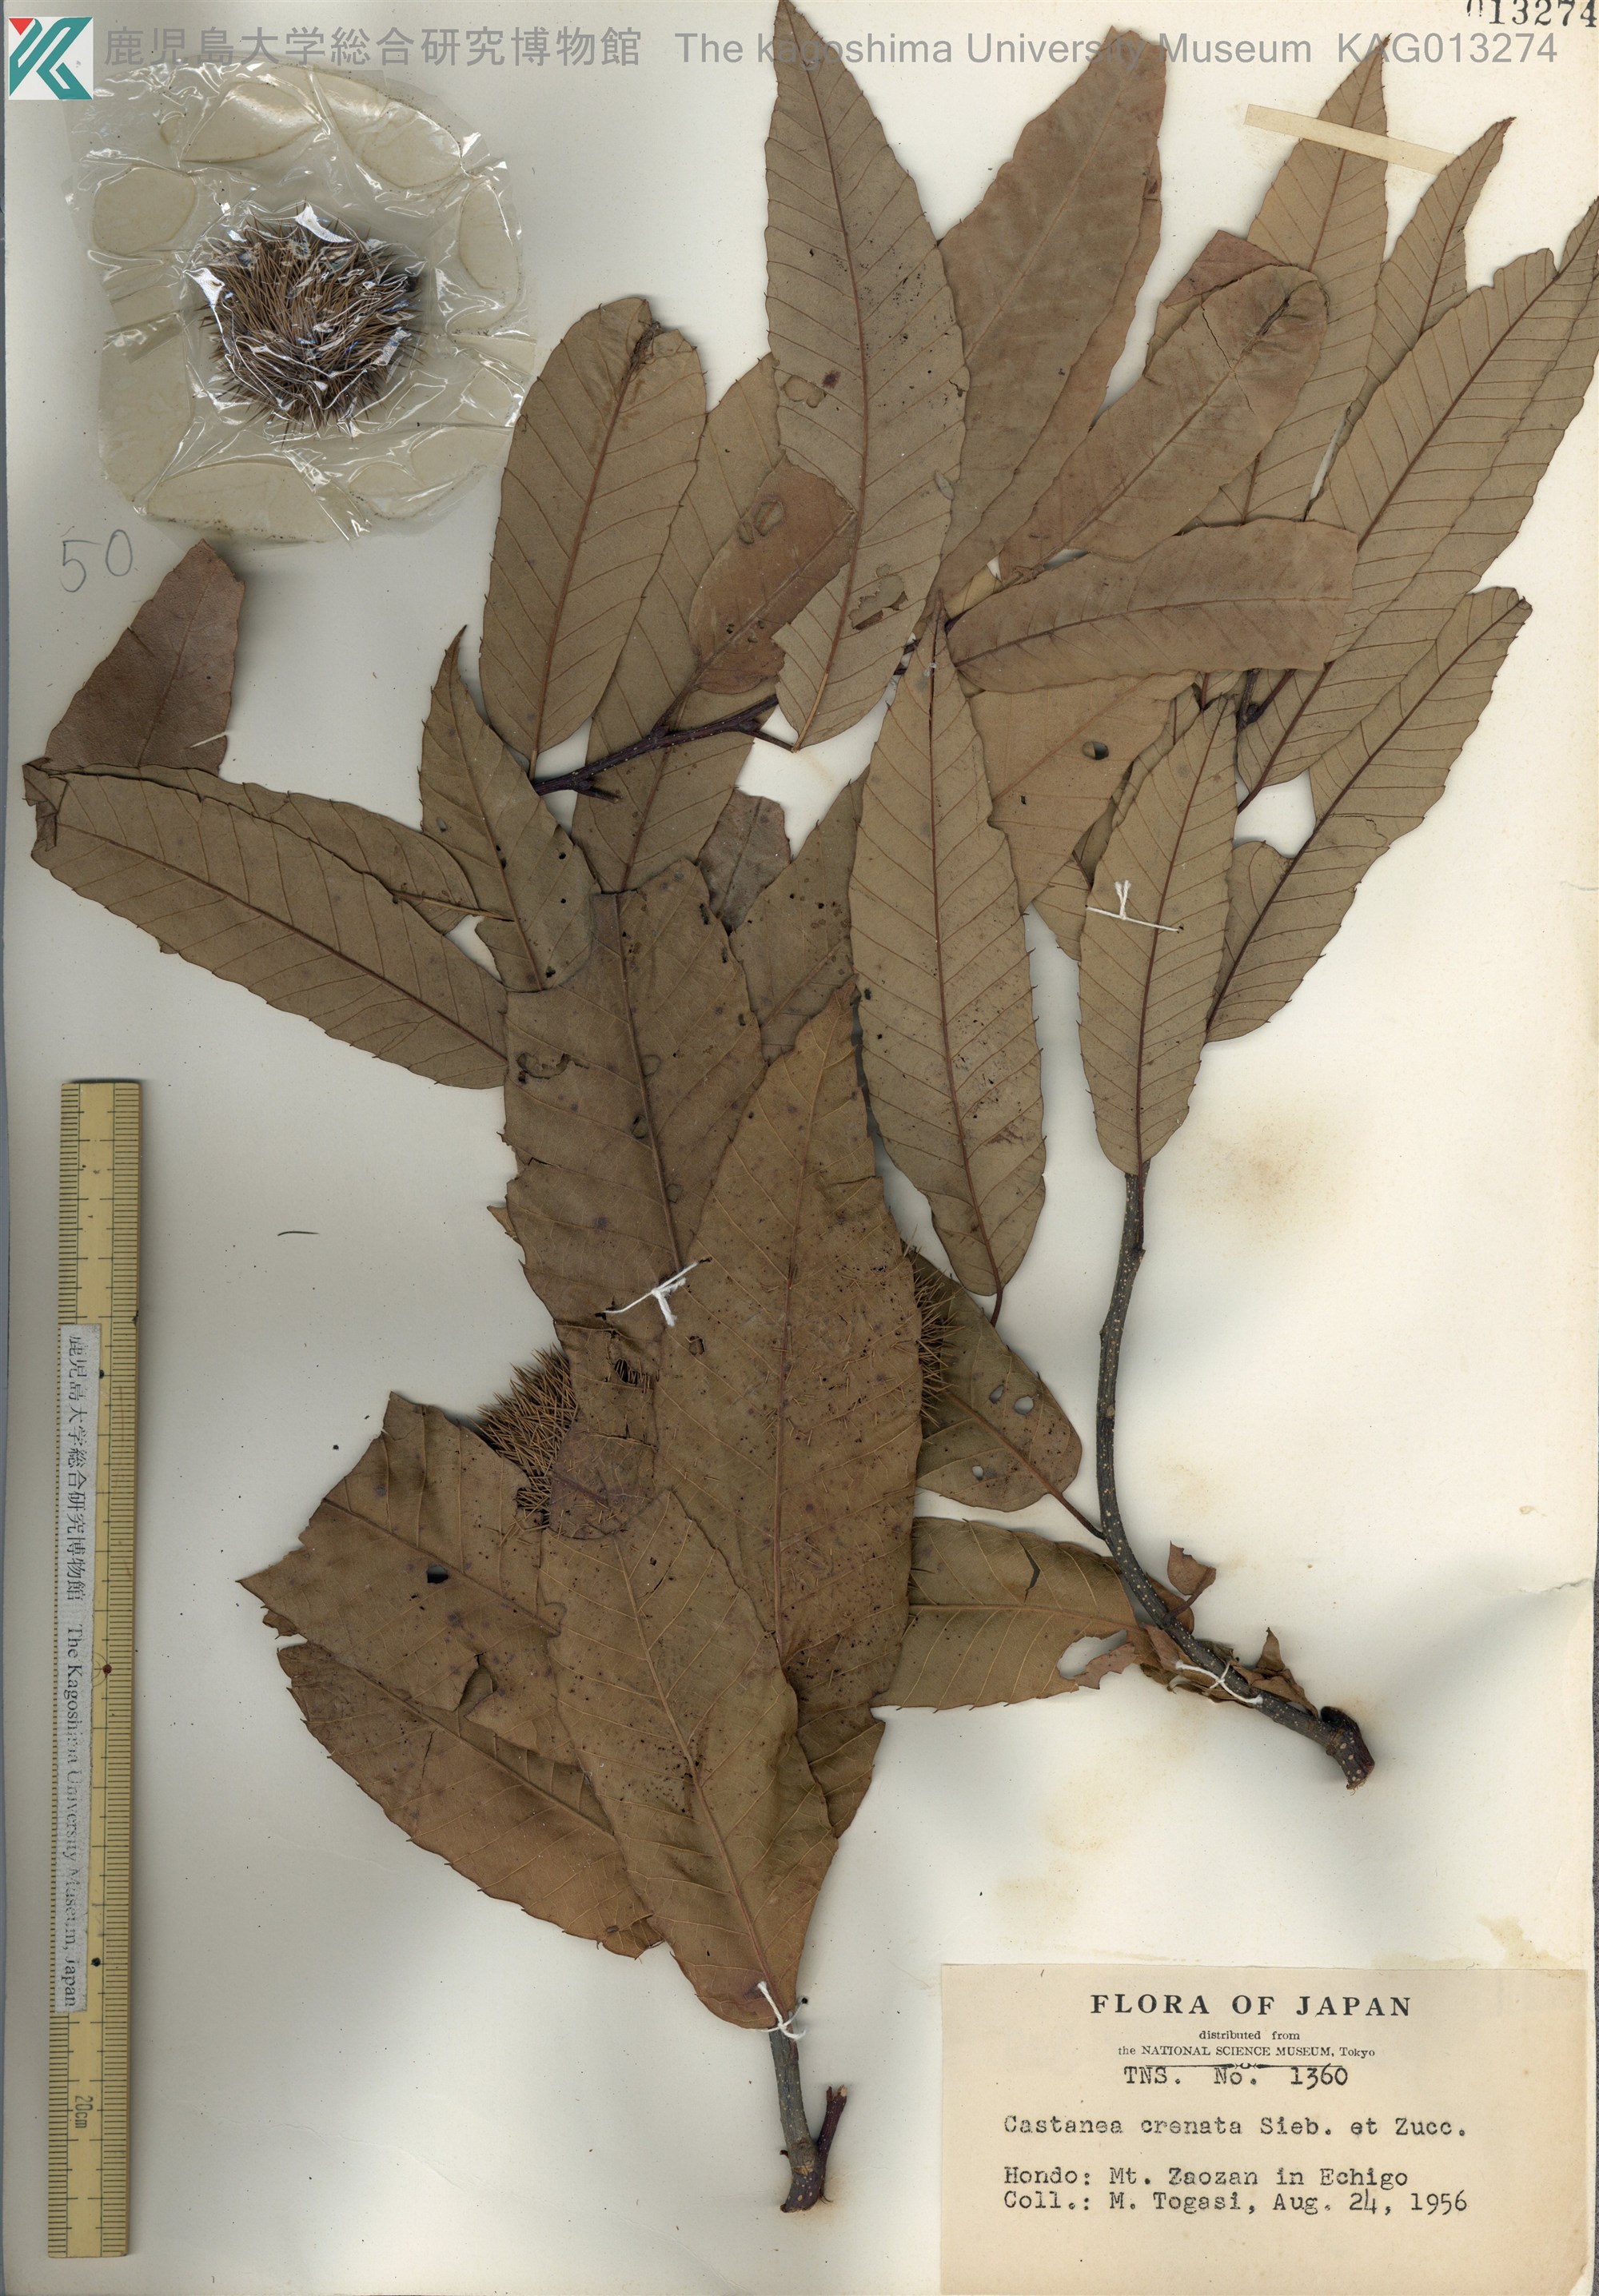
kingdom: Plantae
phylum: Tracheophyta
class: Magnoliopsida
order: Fagales
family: Fagaceae
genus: Castanea
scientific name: Castanea crenata
